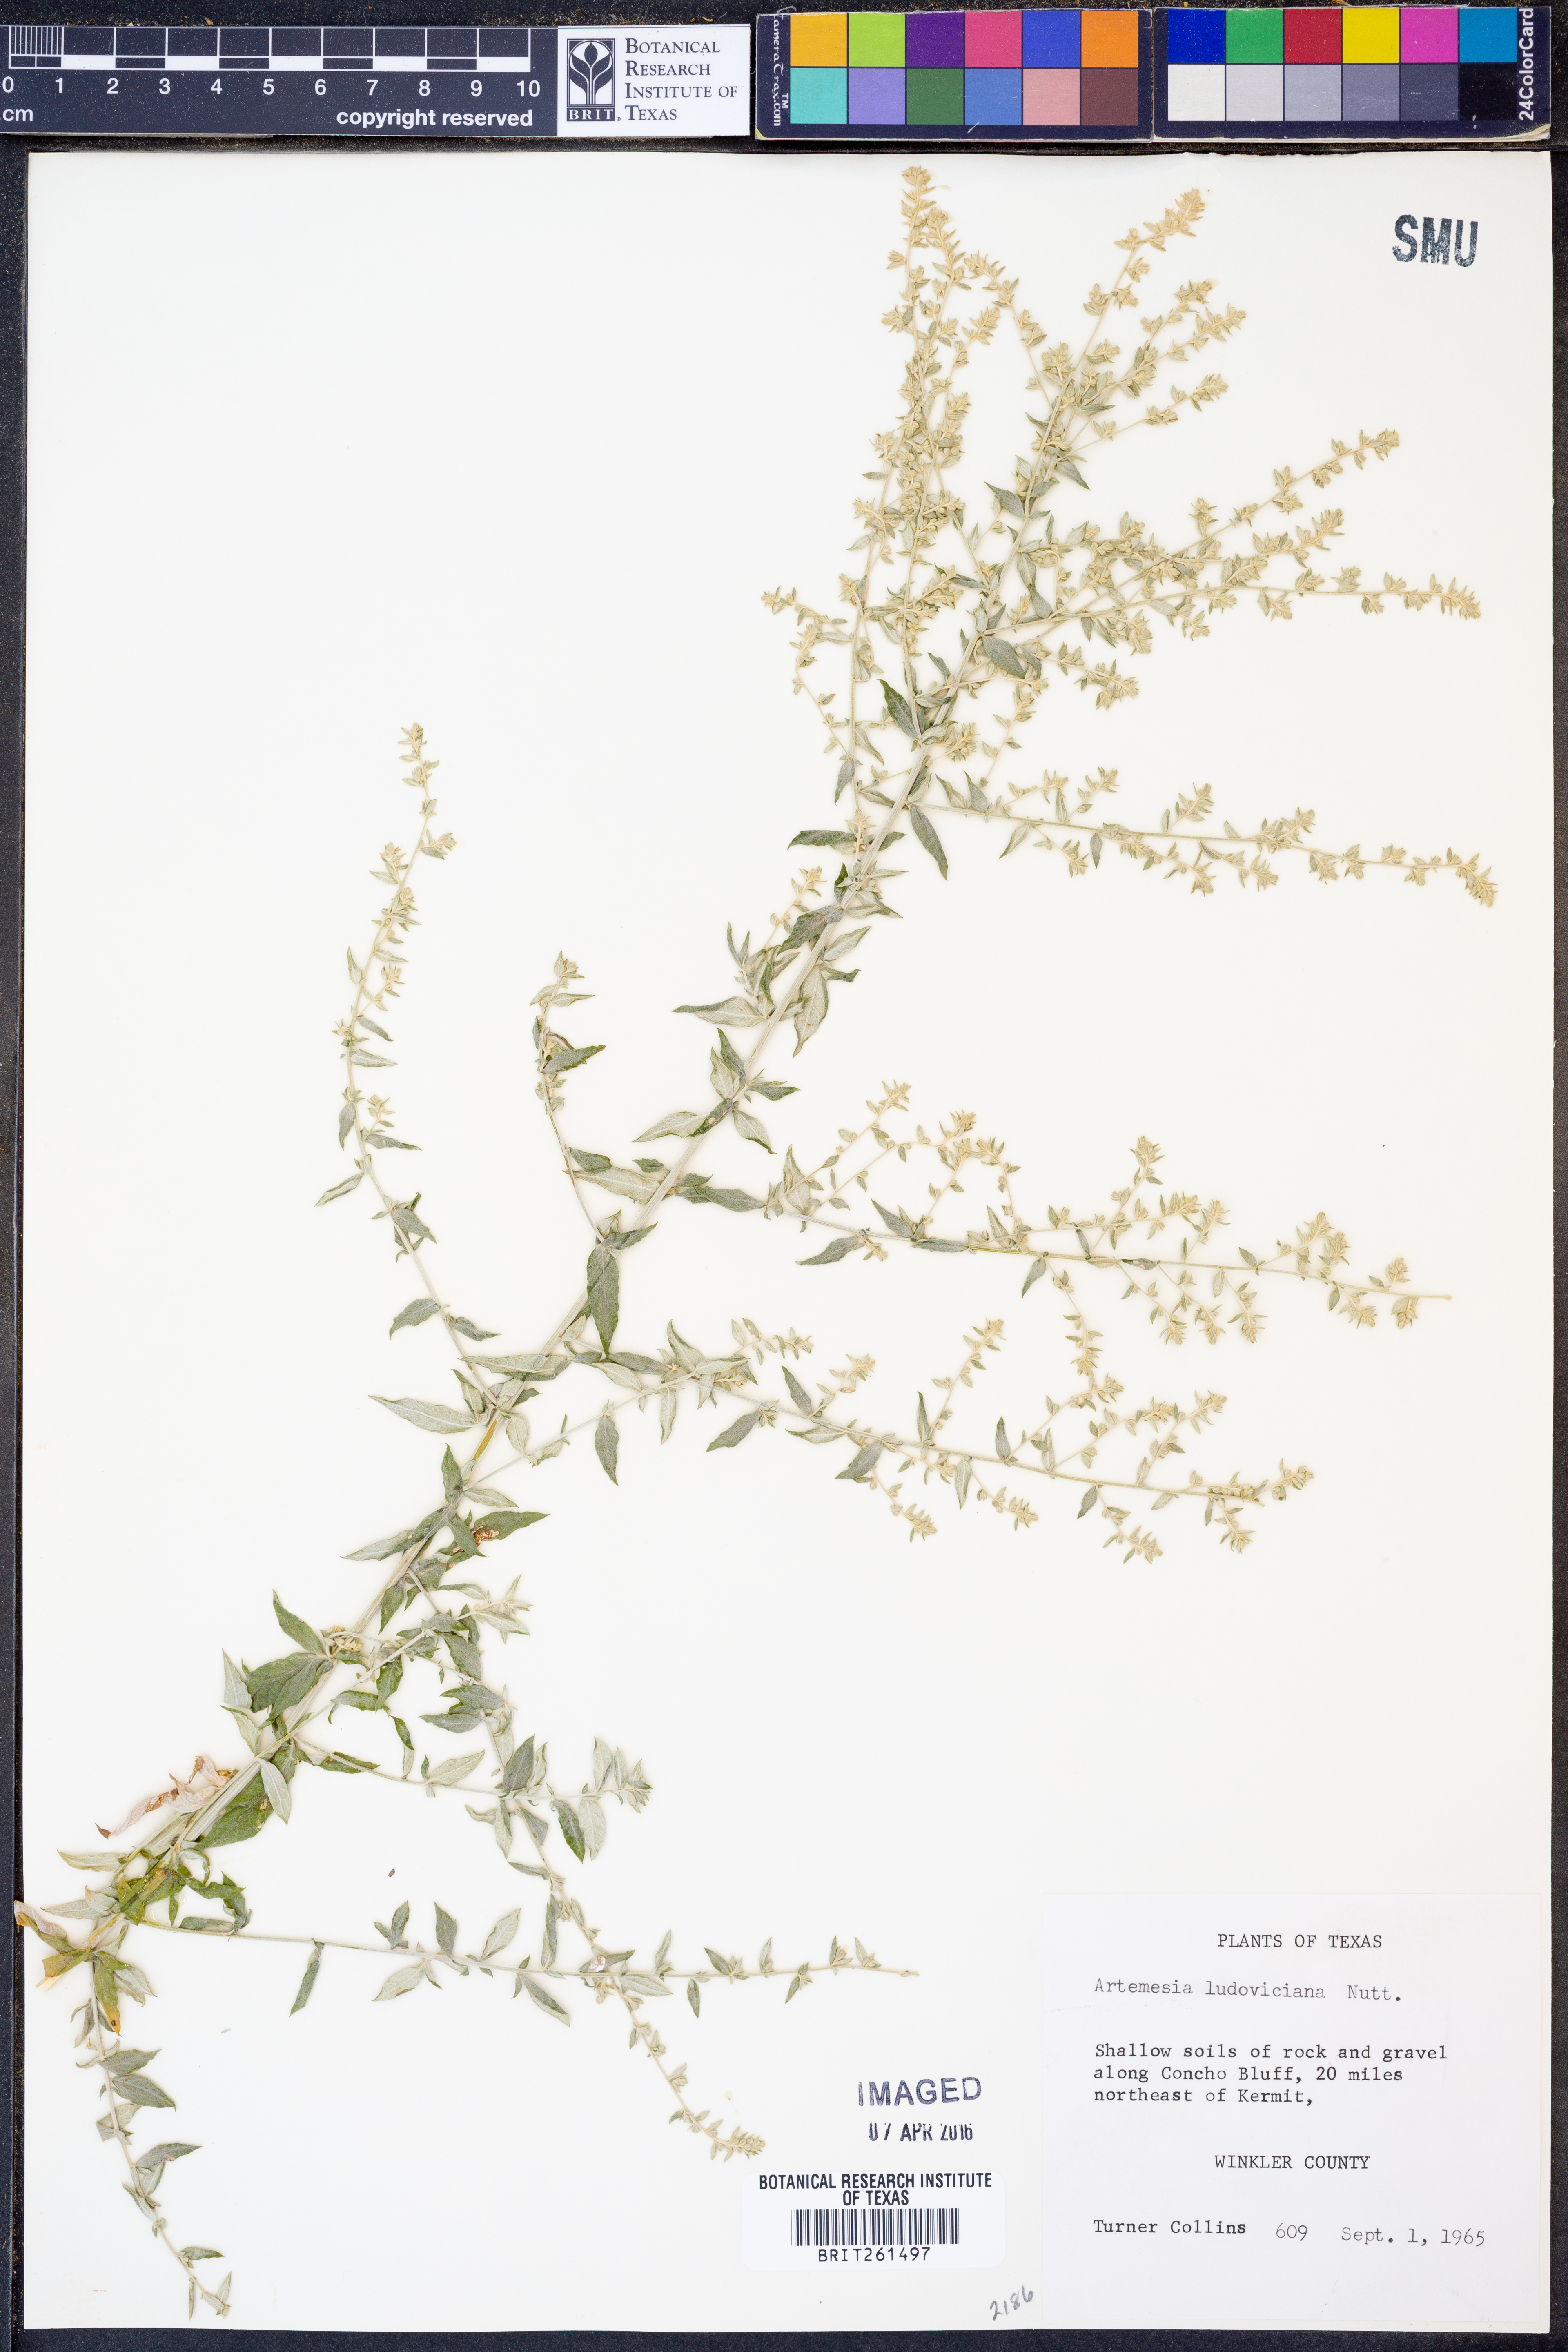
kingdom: Plantae
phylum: Tracheophyta
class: Magnoliopsida
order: Asterales
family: Asteraceae
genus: Artemisia
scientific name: Artemisia ludoviciana
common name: Western mugwort
